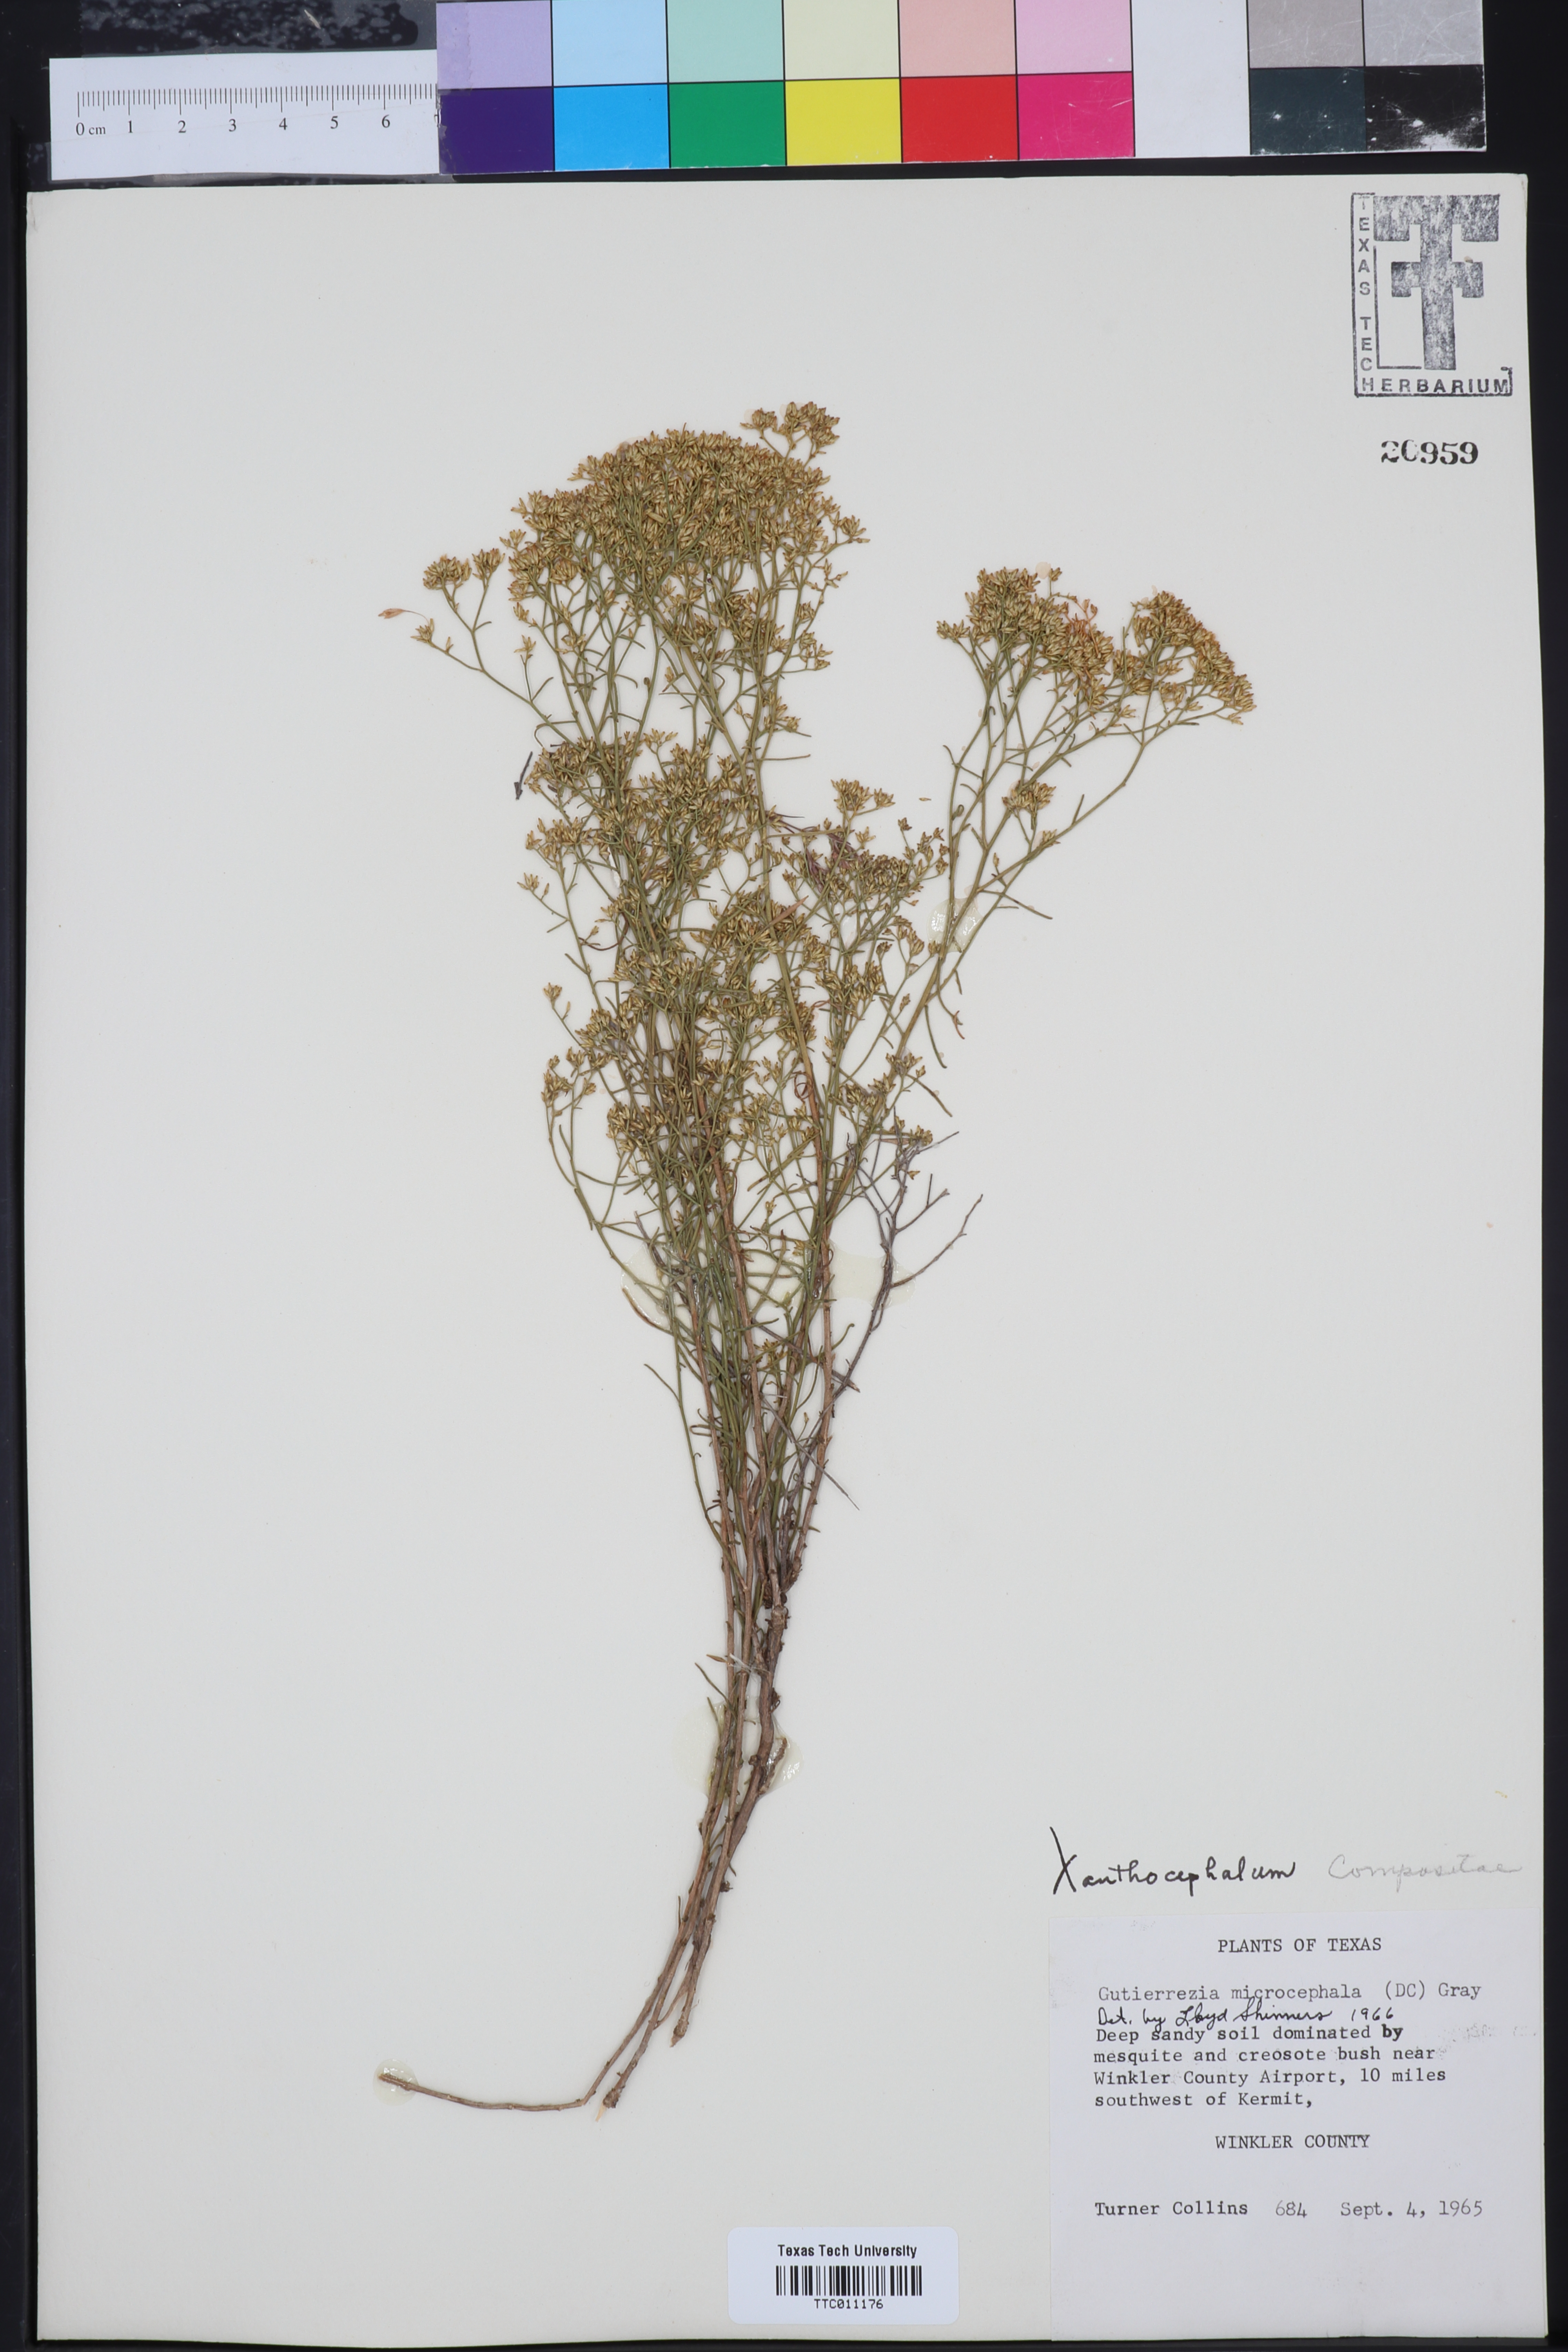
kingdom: Plantae
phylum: Tracheophyta
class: Magnoliopsida
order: Asterales
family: Asteraceae
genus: Xanthocephalum
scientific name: Xanthocephalum
